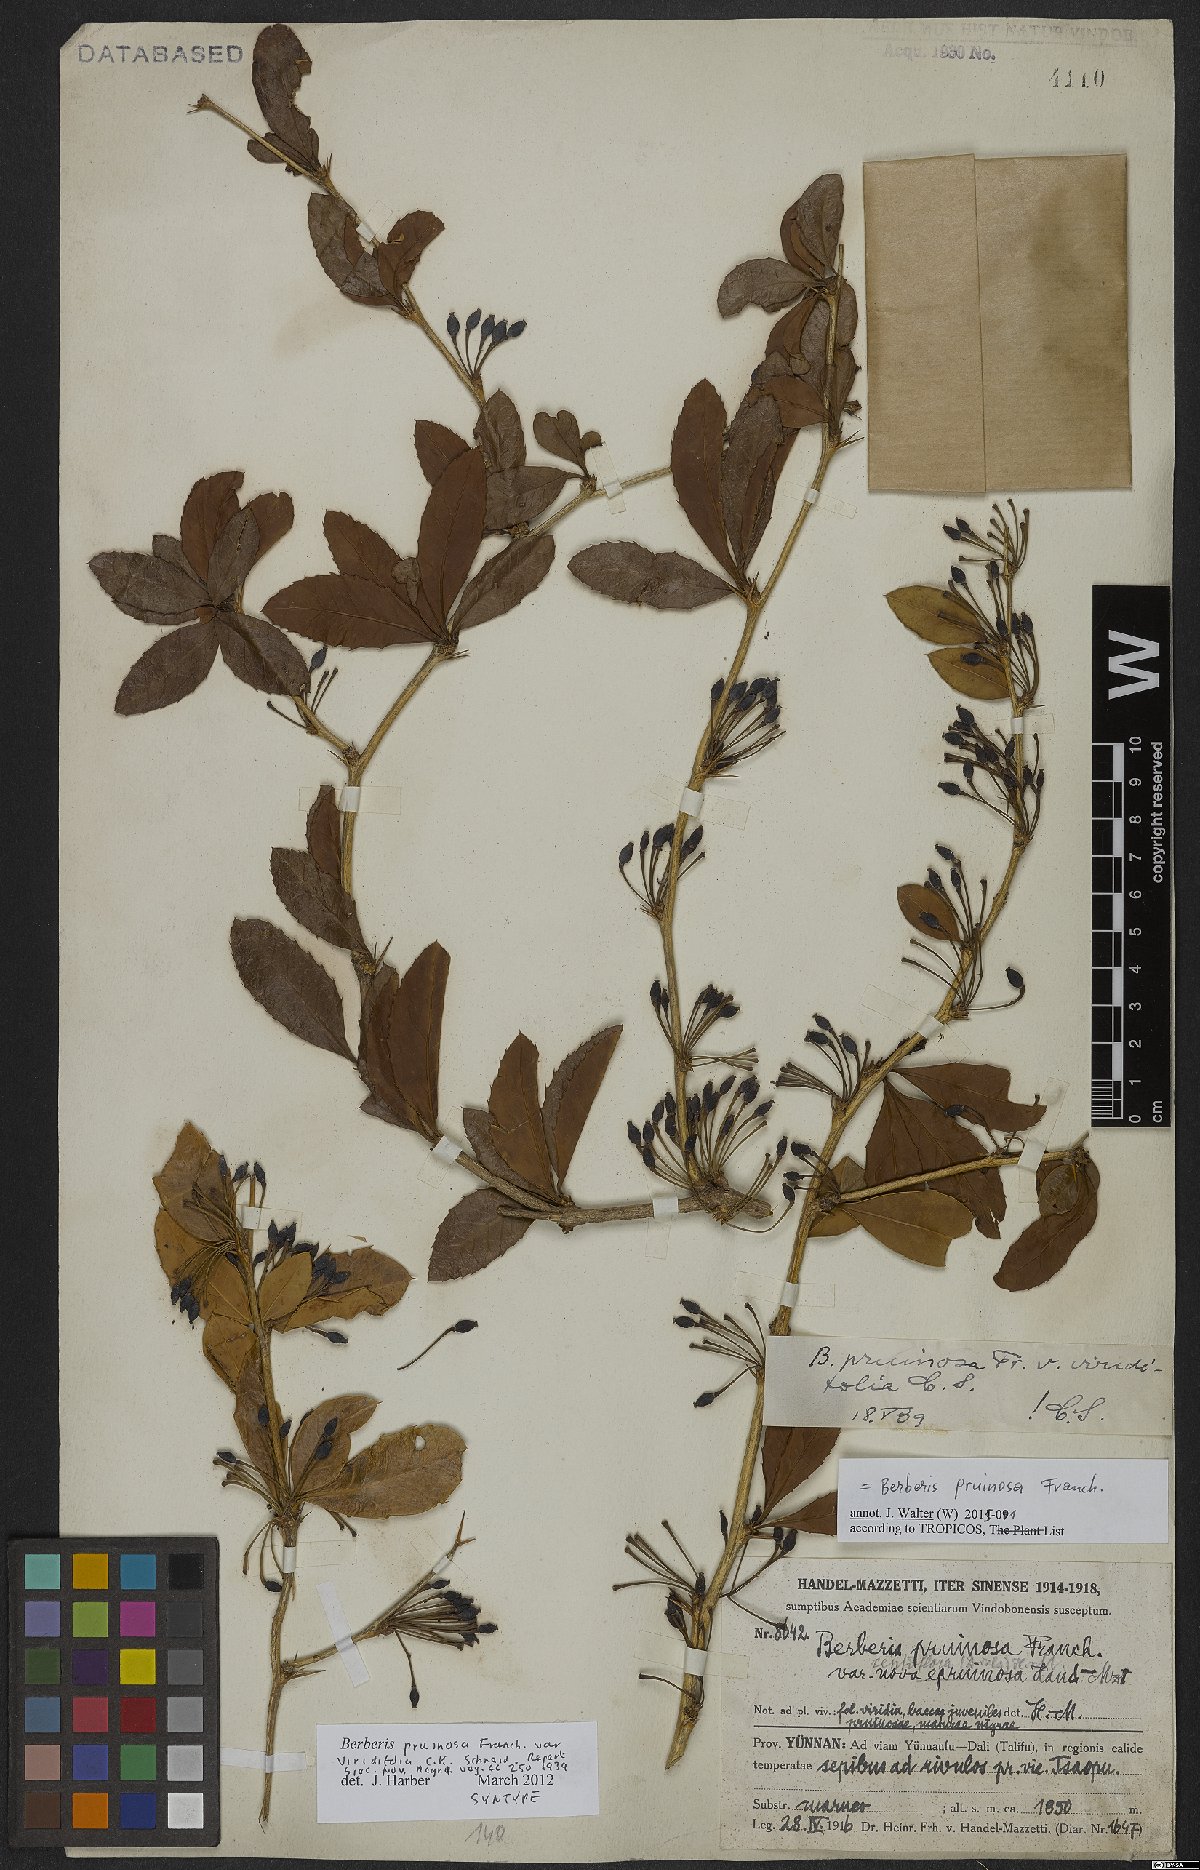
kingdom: Plantae
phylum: Tracheophyta
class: Magnoliopsida
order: Ranunculales
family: Berberidaceae
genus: Berberis
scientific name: Berberis pruinosa
